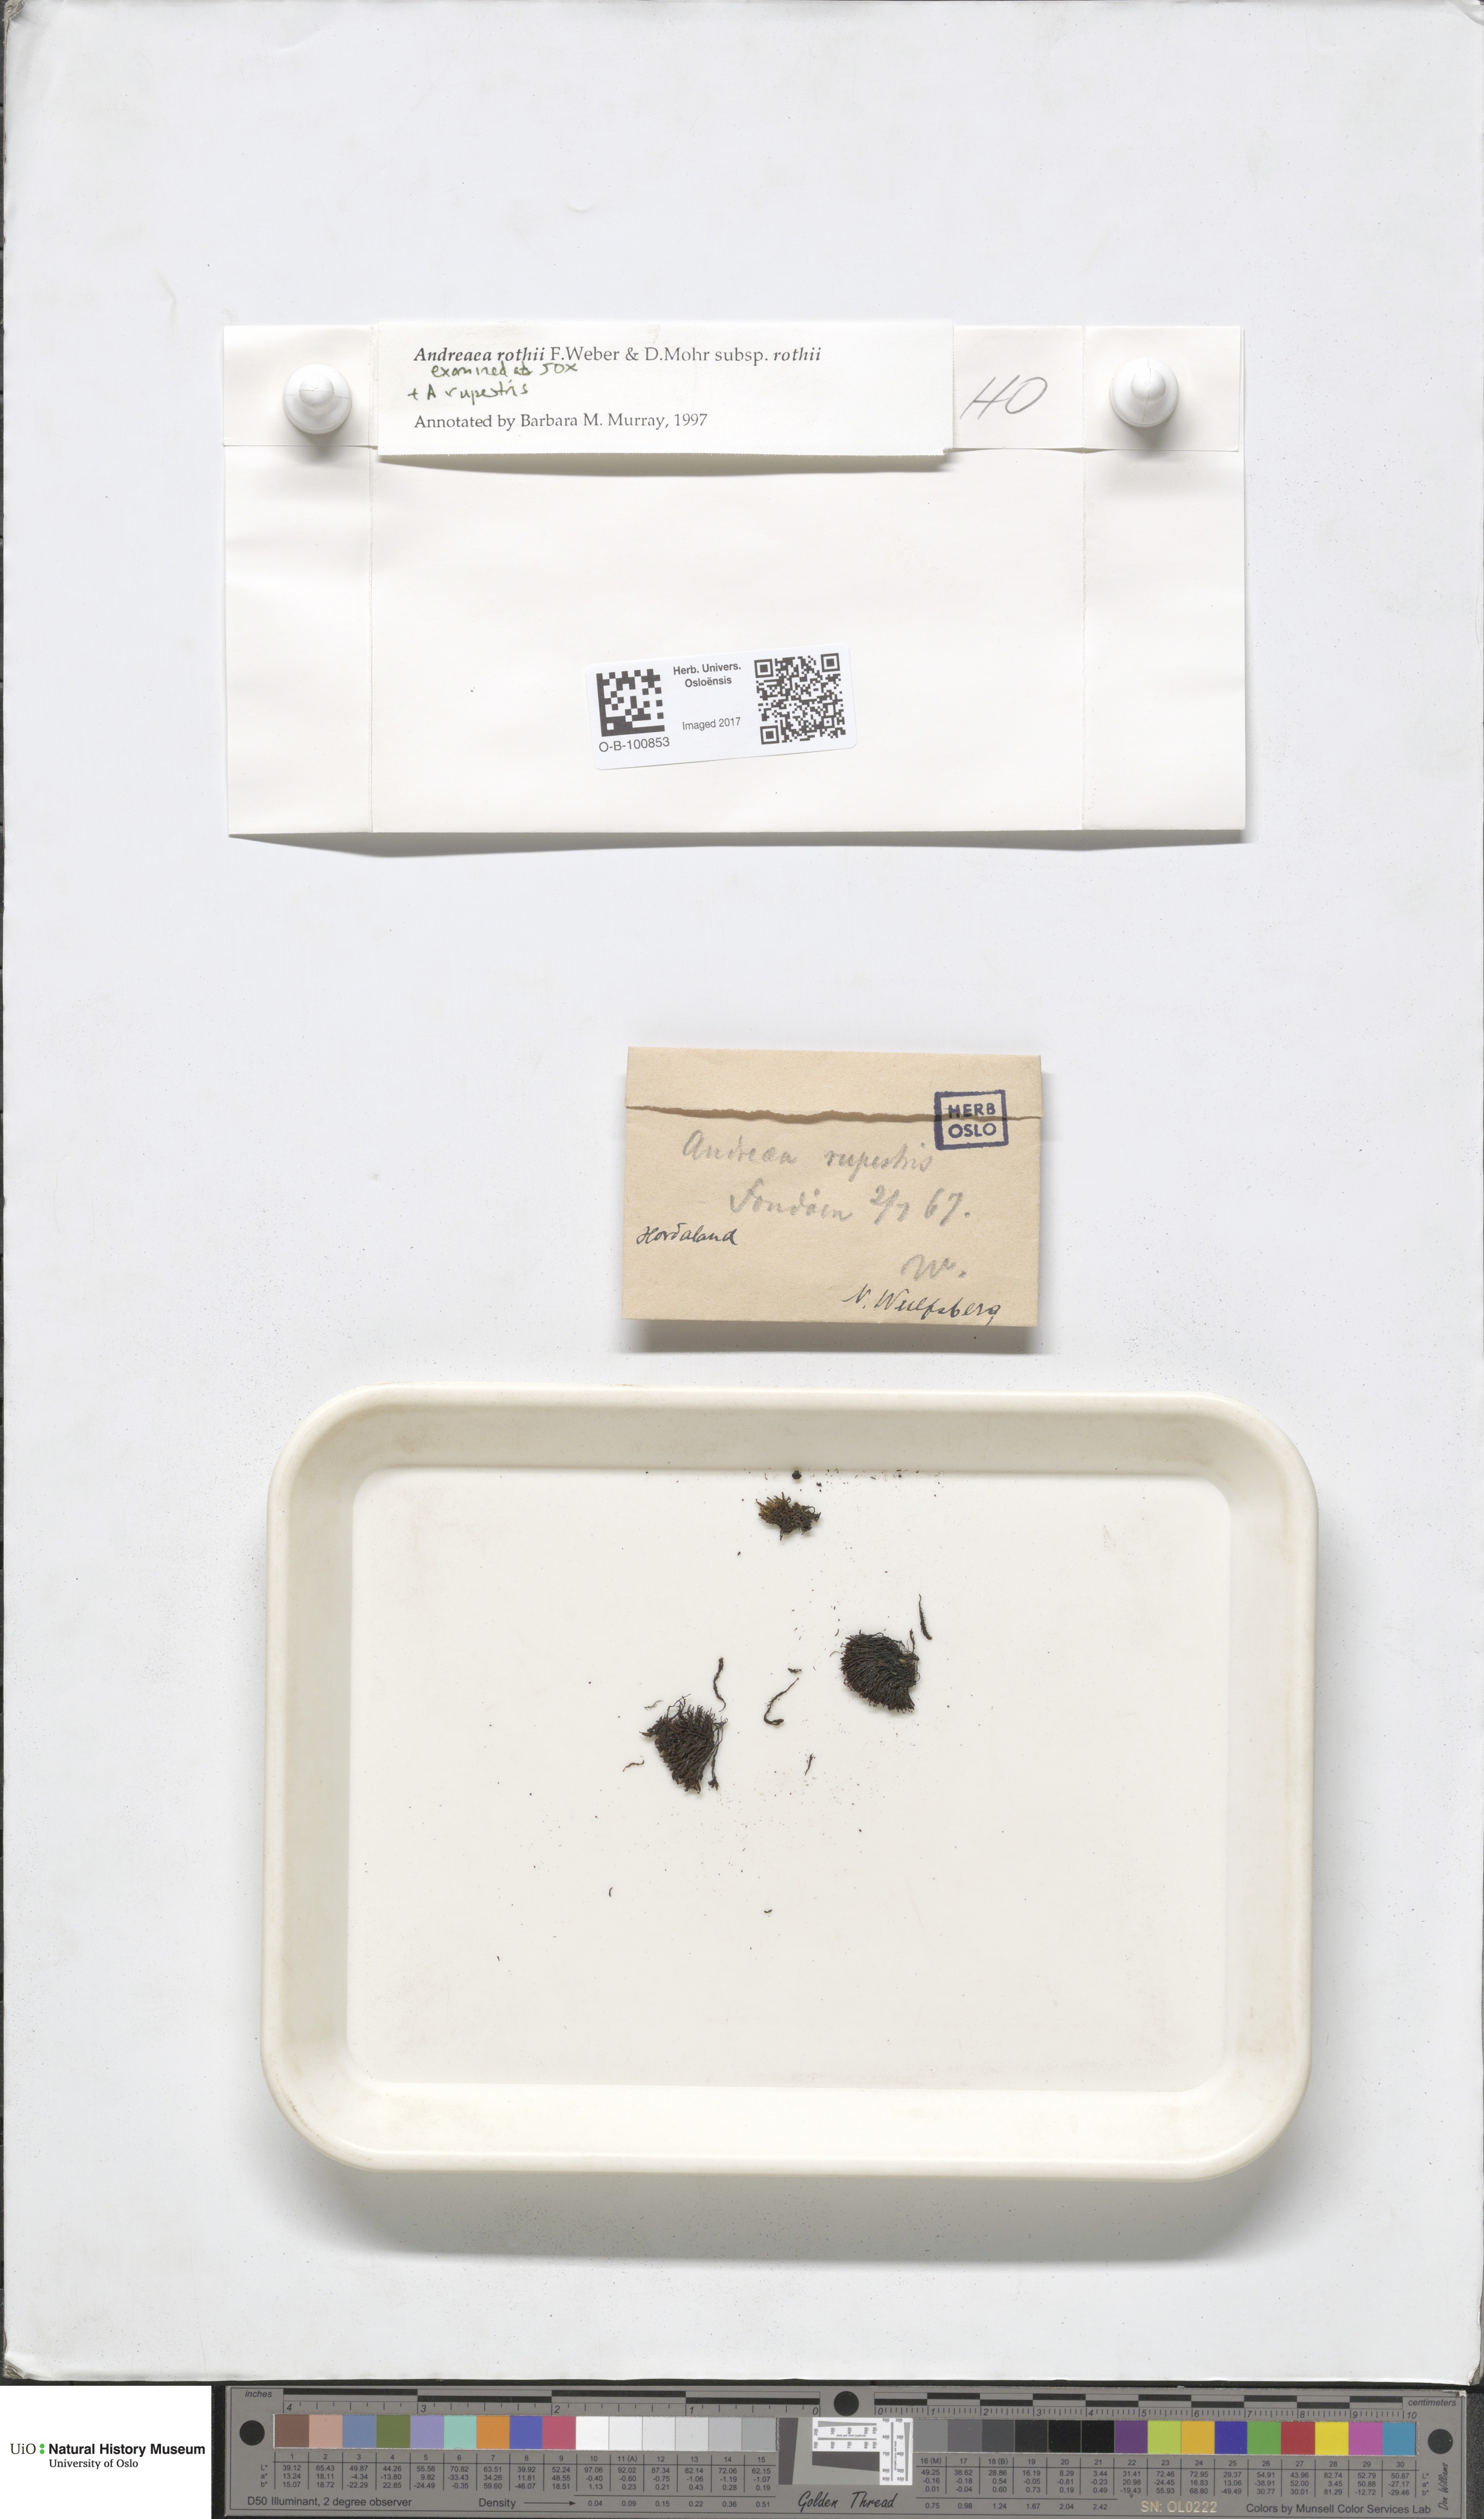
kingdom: Plantae
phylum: Bryophyta
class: Andreaeopsida
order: Andreaeales
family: Andreaeaceae
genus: Andreaea
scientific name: Andreaea rothii
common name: Dusky rock moss
